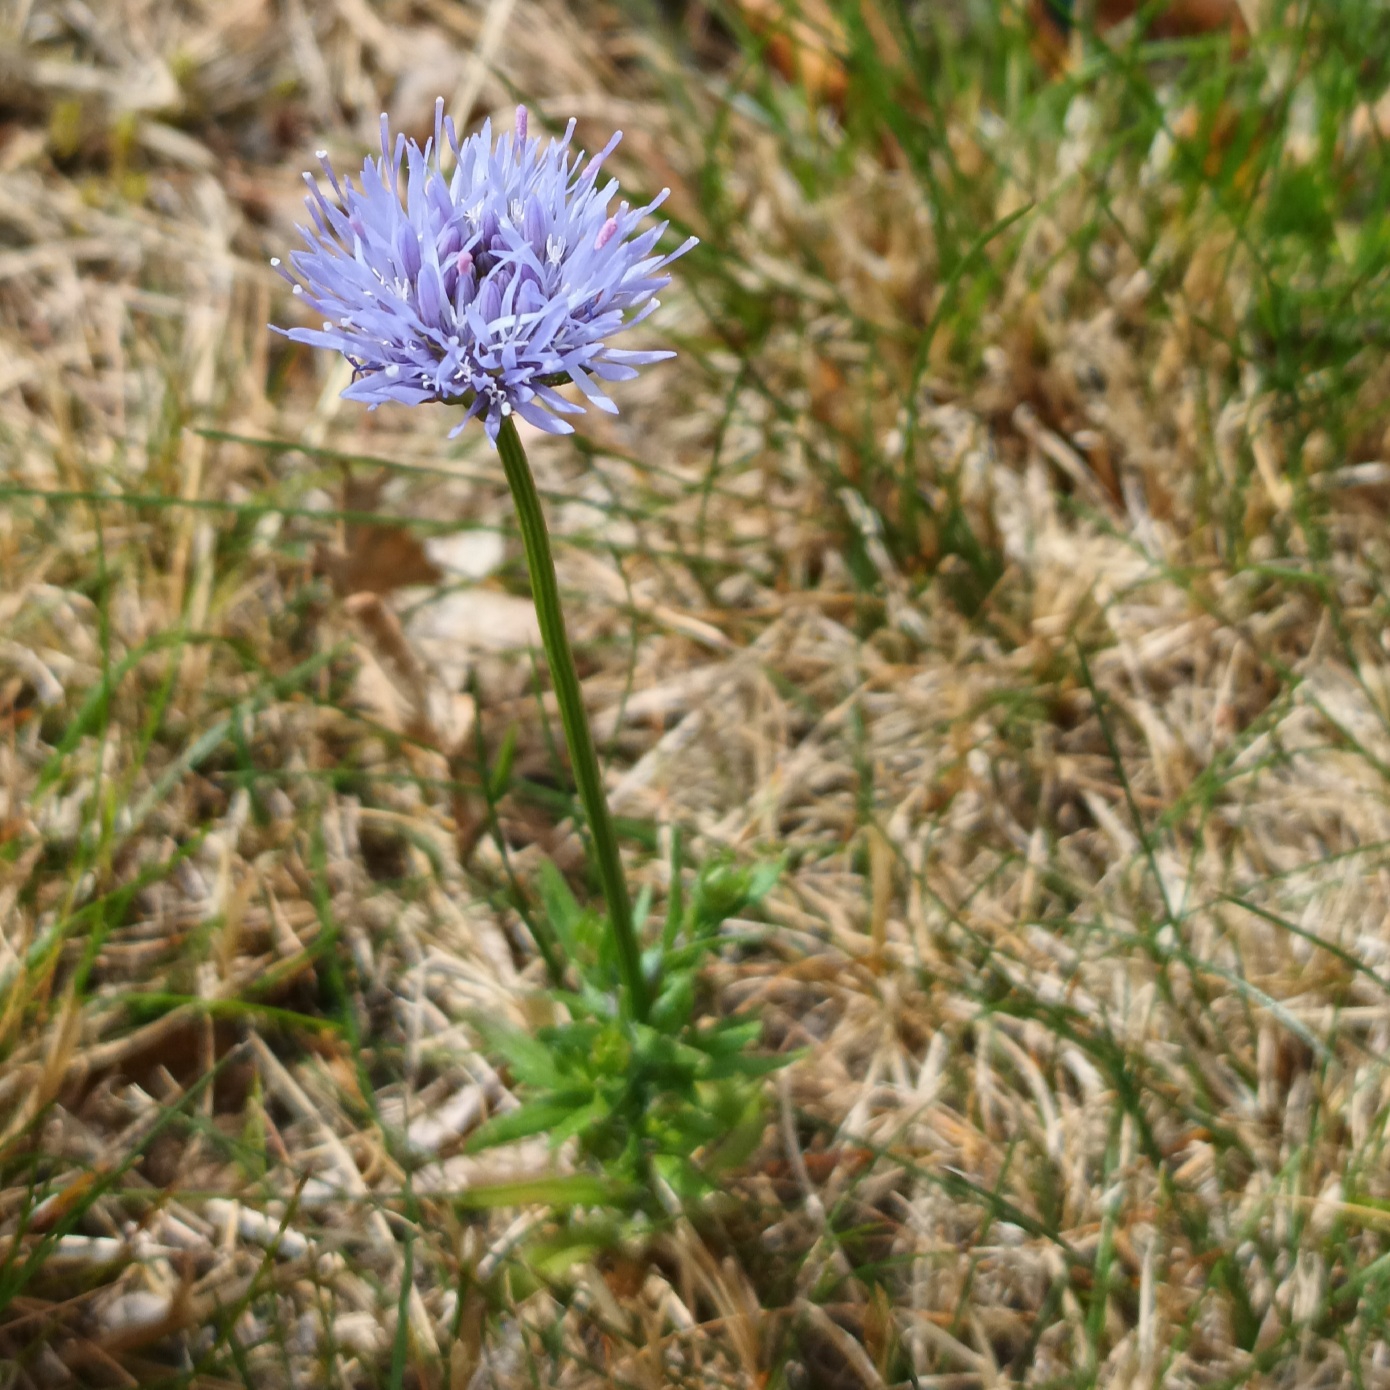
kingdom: Plantae
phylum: Tracheophyta
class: Magnoliopsida
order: Asterales
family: Campanulaceae
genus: Jasione
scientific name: Jasione montana
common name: Blåmunke
